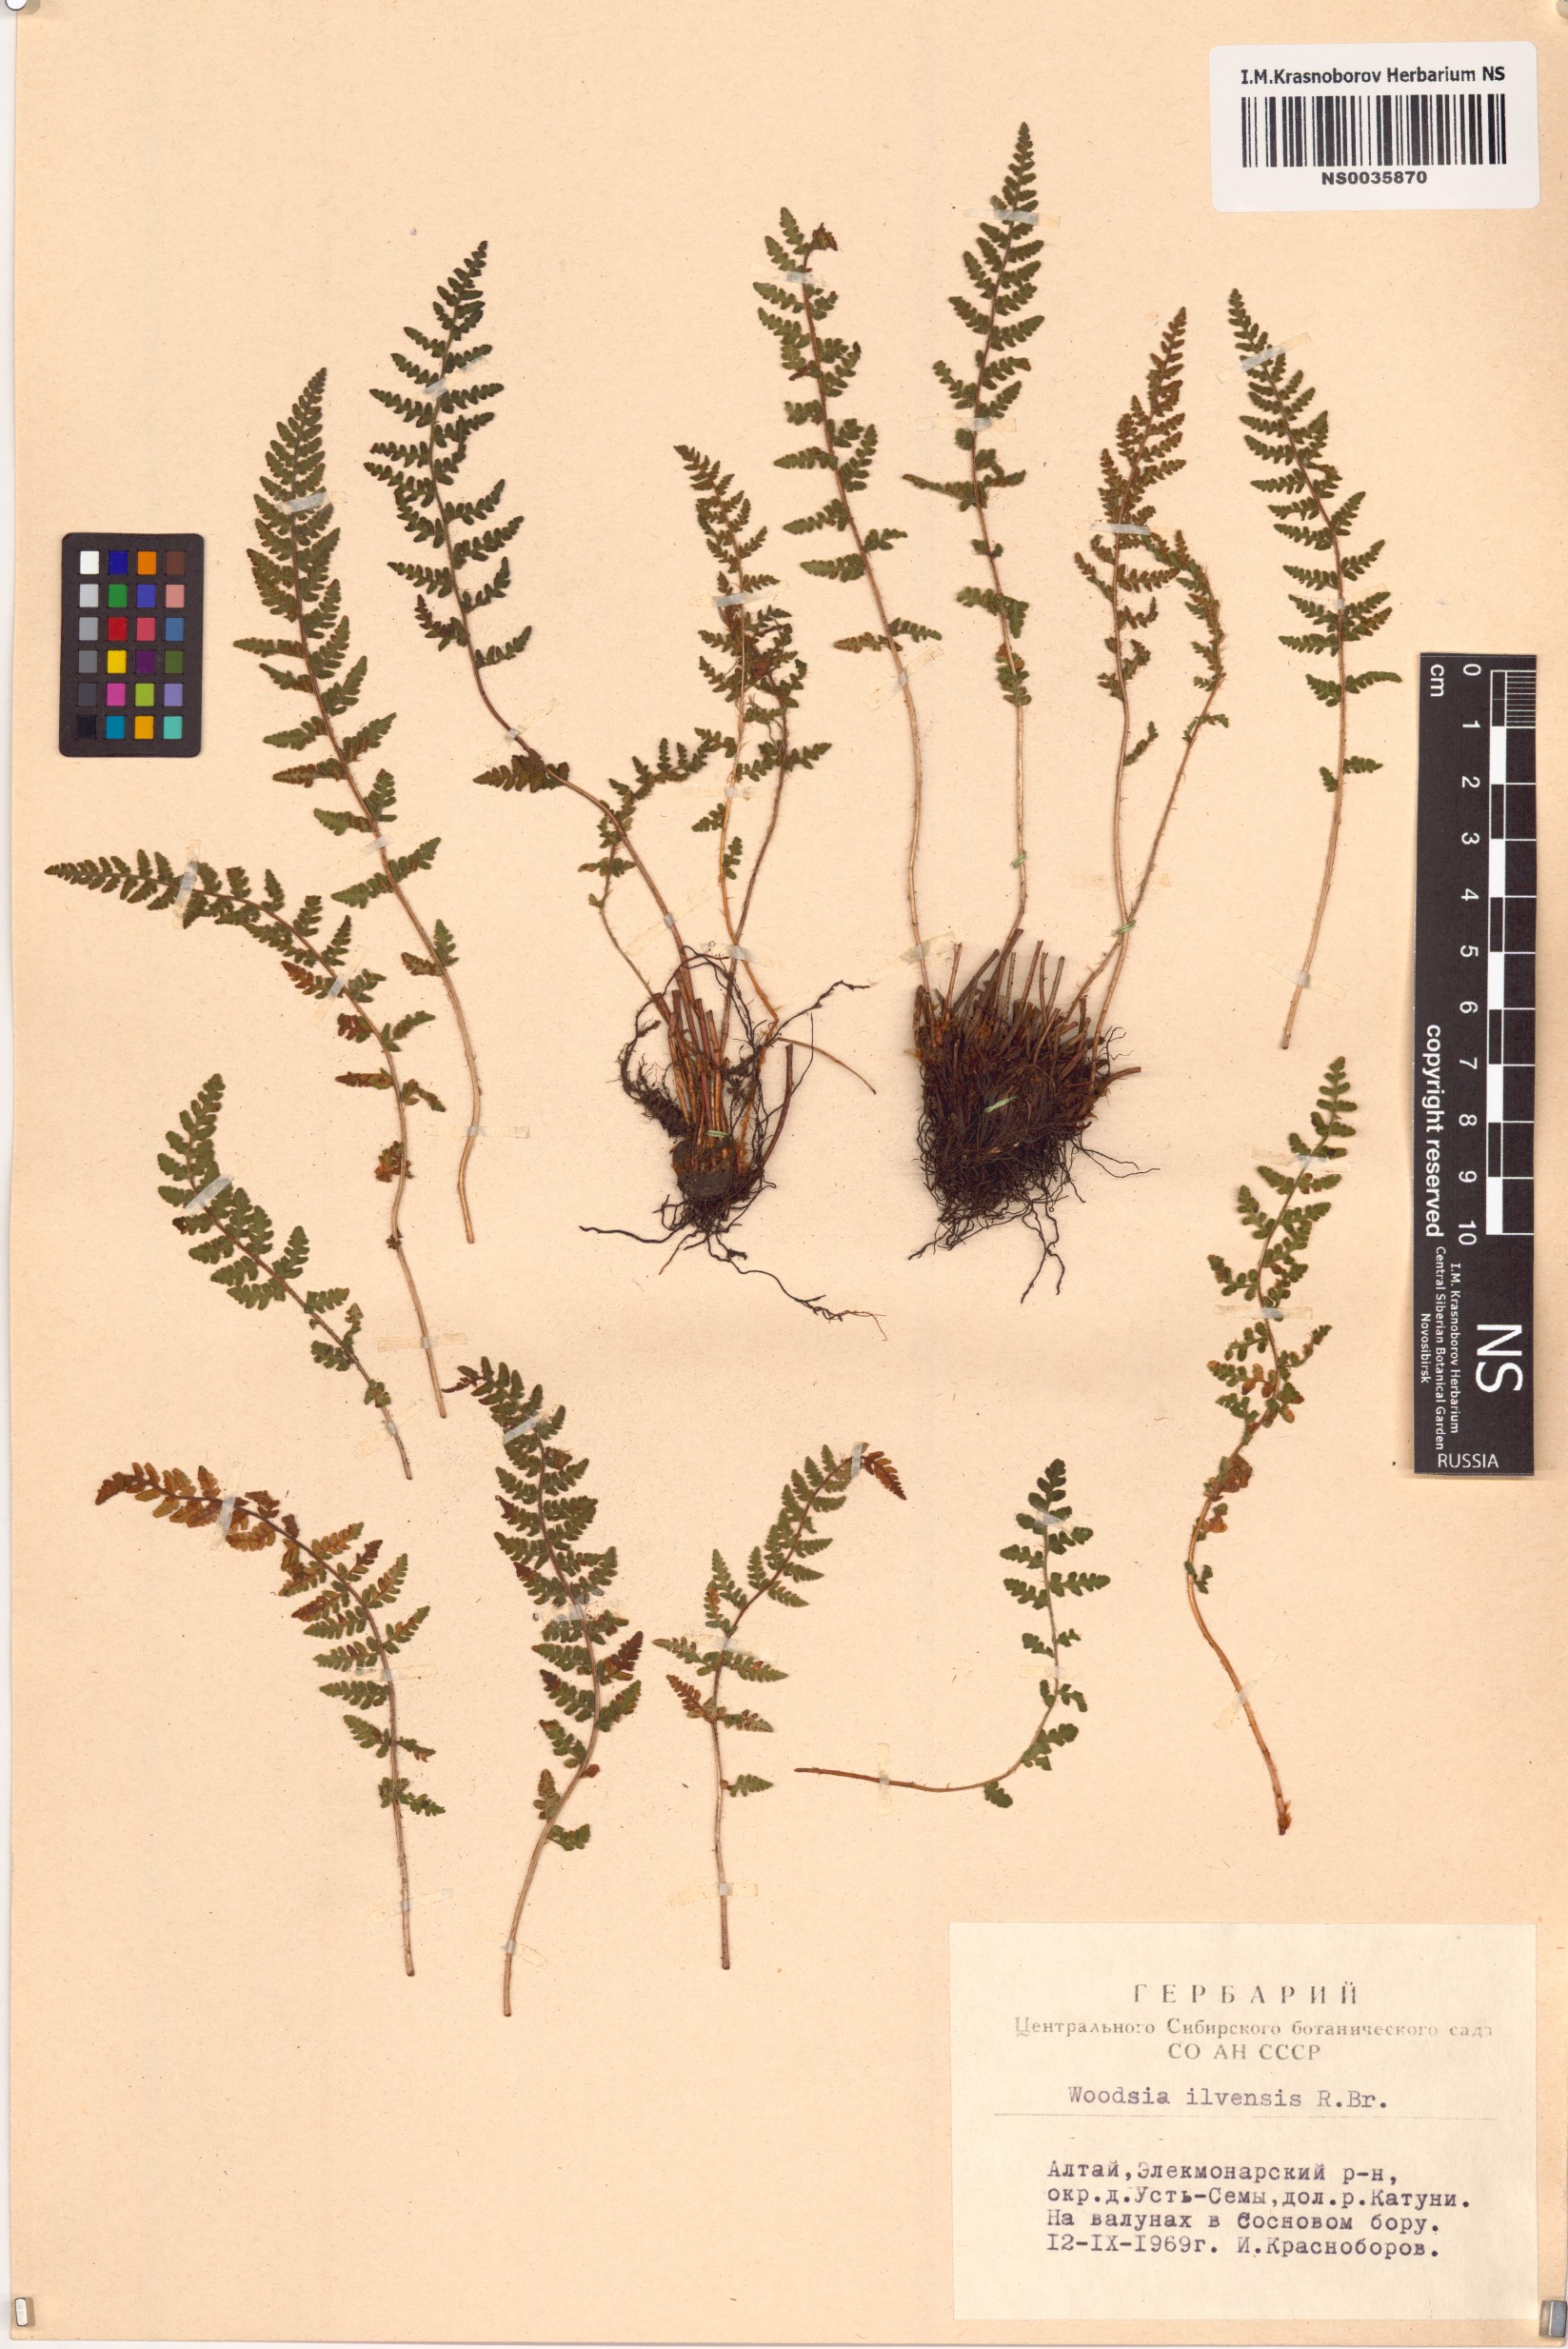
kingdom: Plantae
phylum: Tracheophyta
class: Polypodiopsida
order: Polypodiales
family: Woodsiaceae
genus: Woodsia
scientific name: Woodsia ilvensis
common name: Fragrant woodsia
